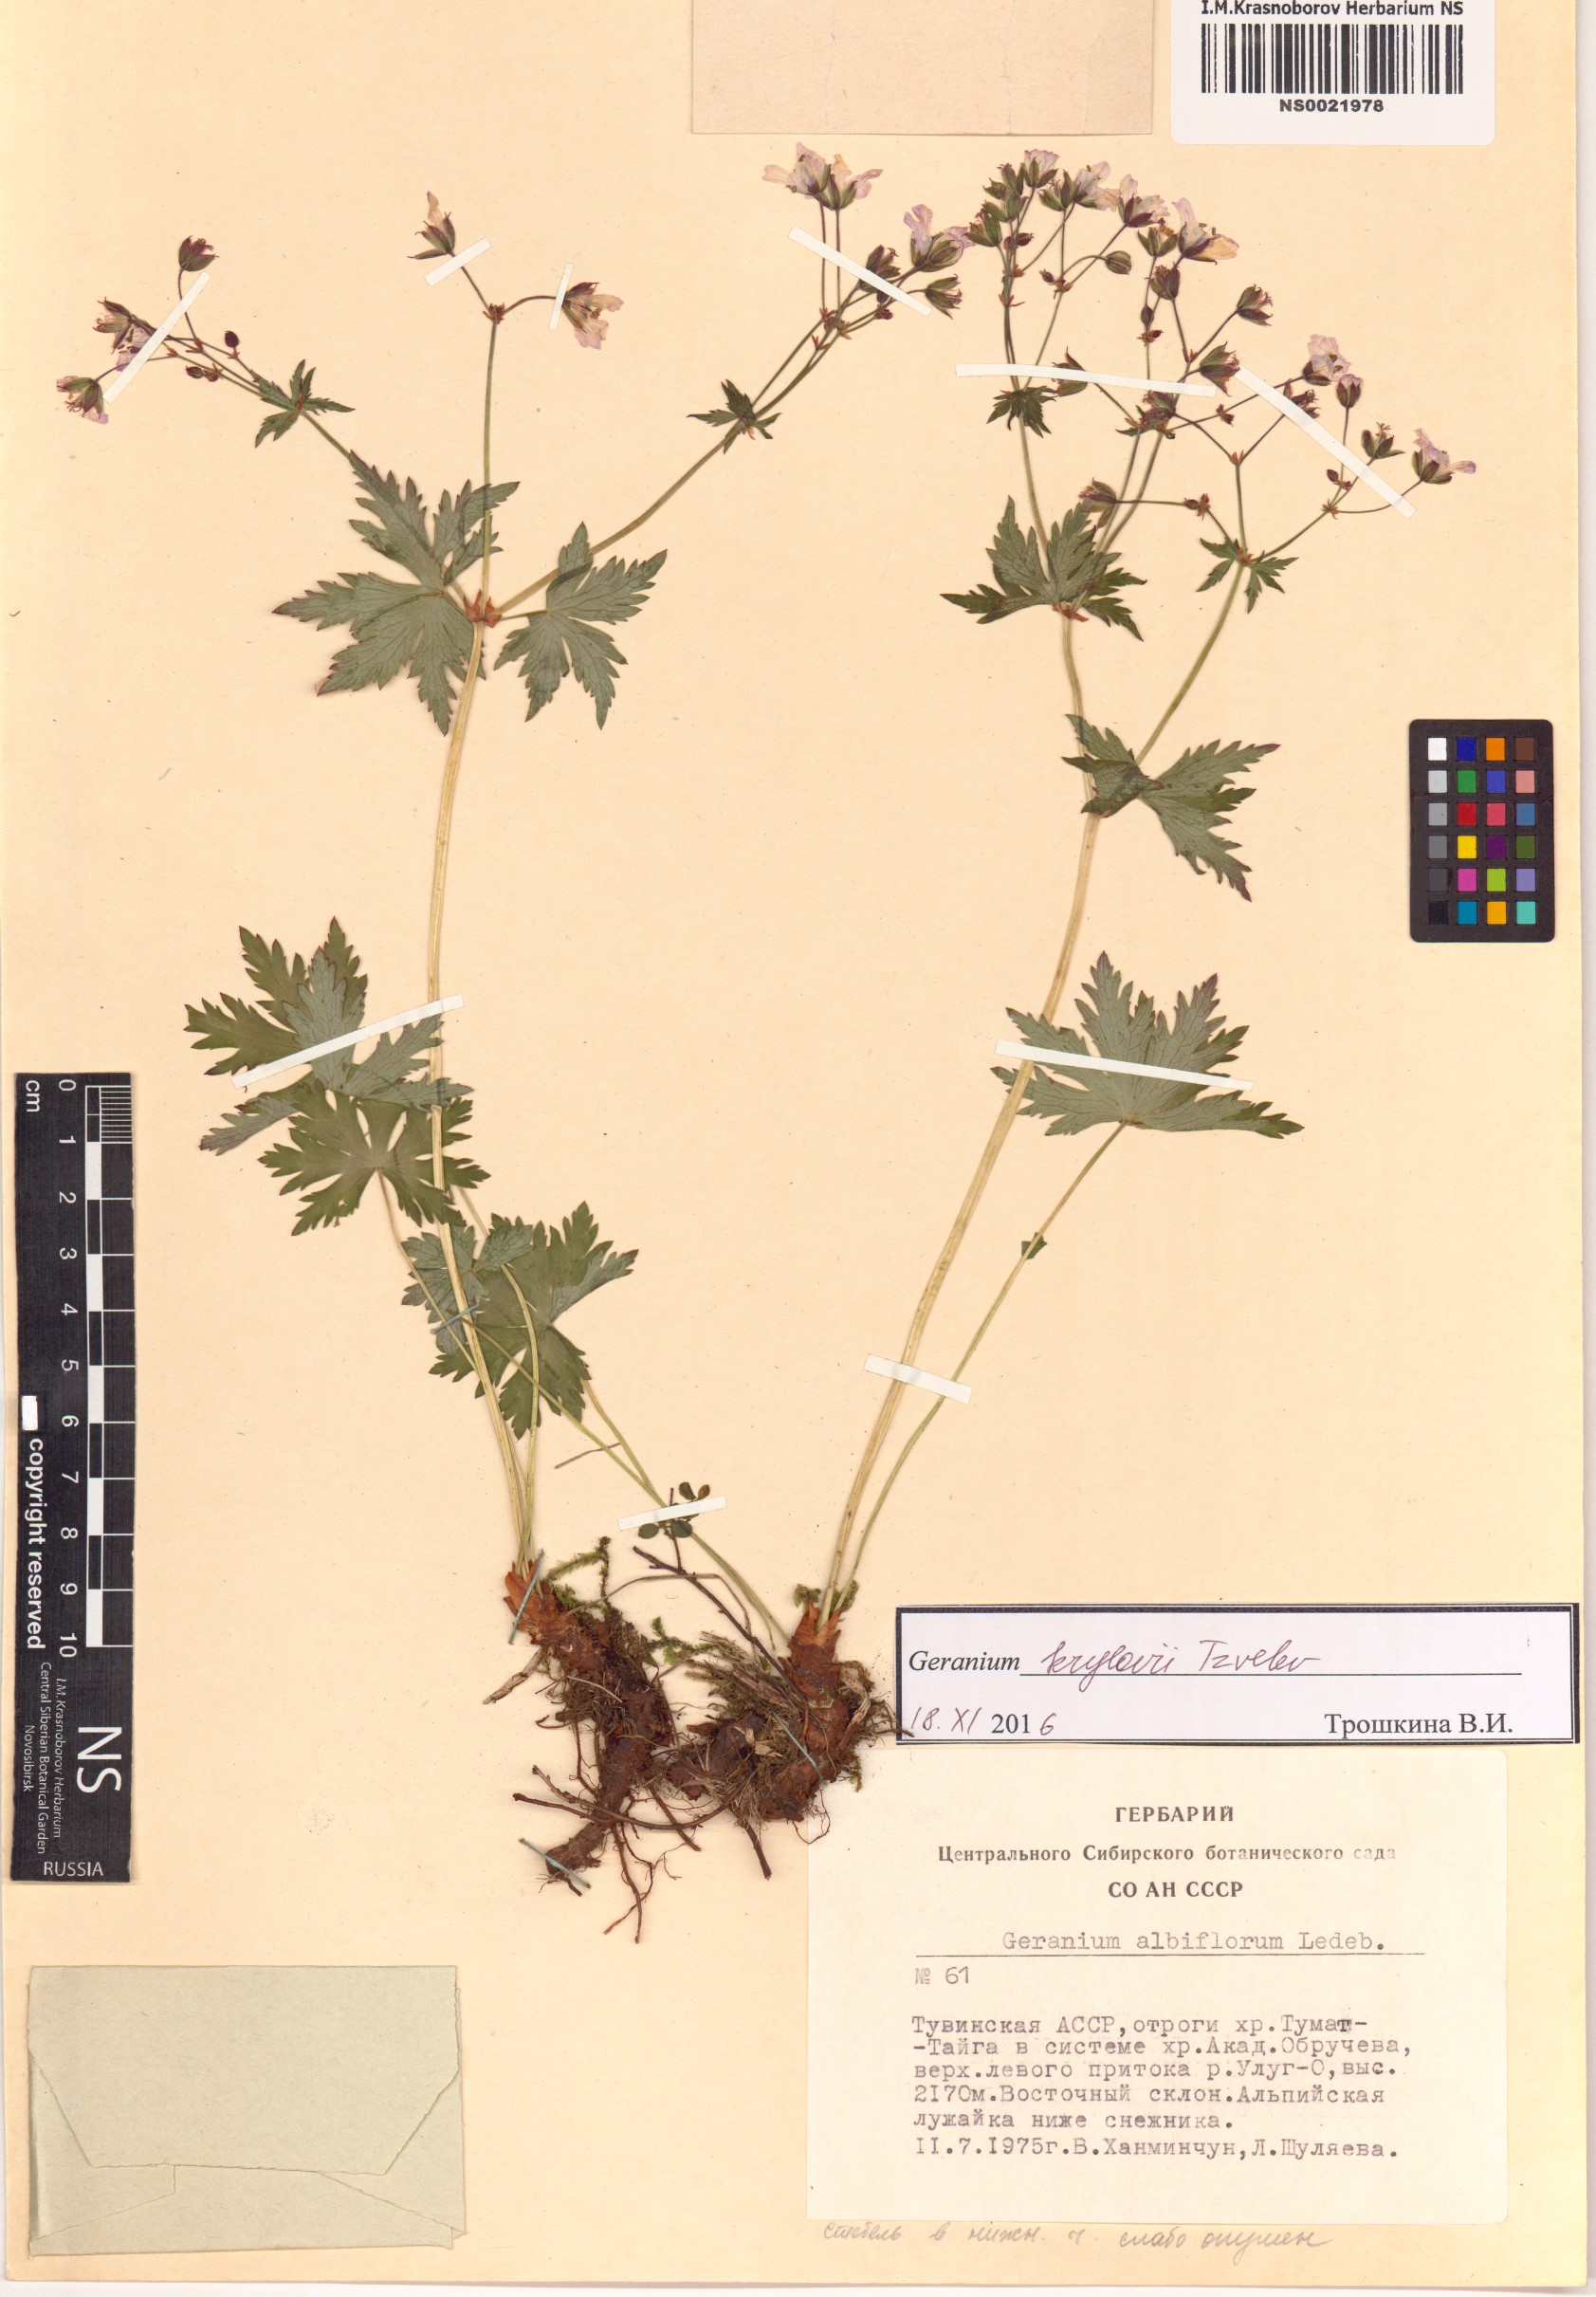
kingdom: Plantae
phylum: Tracheophyta
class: Magnoliopsida
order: Geraniales
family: Geraniaceae
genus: Geranium
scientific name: Geranium sylvaticum
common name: Wood crane's-bill
